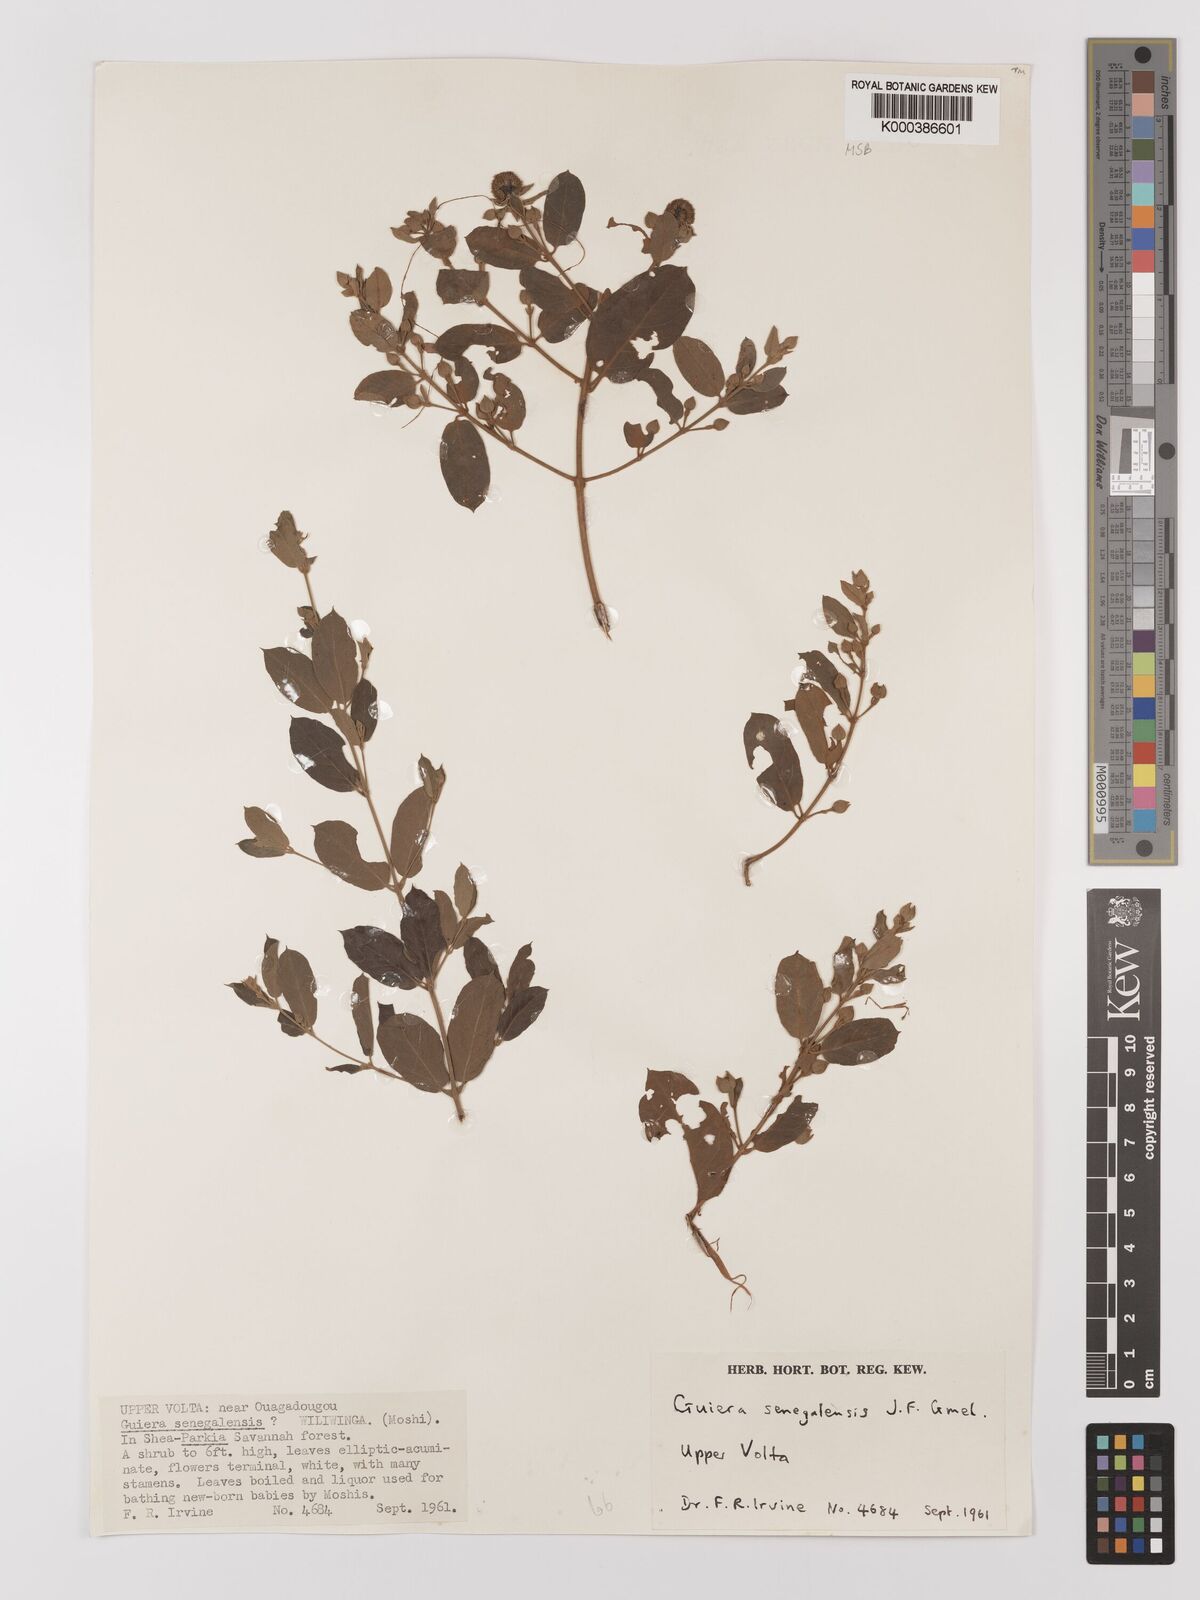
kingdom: Plantae
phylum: Tracheophyta
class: Magnoliopsida
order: Myrtales
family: Combretaceae
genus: Guiera
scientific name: Guiera senegalensis
